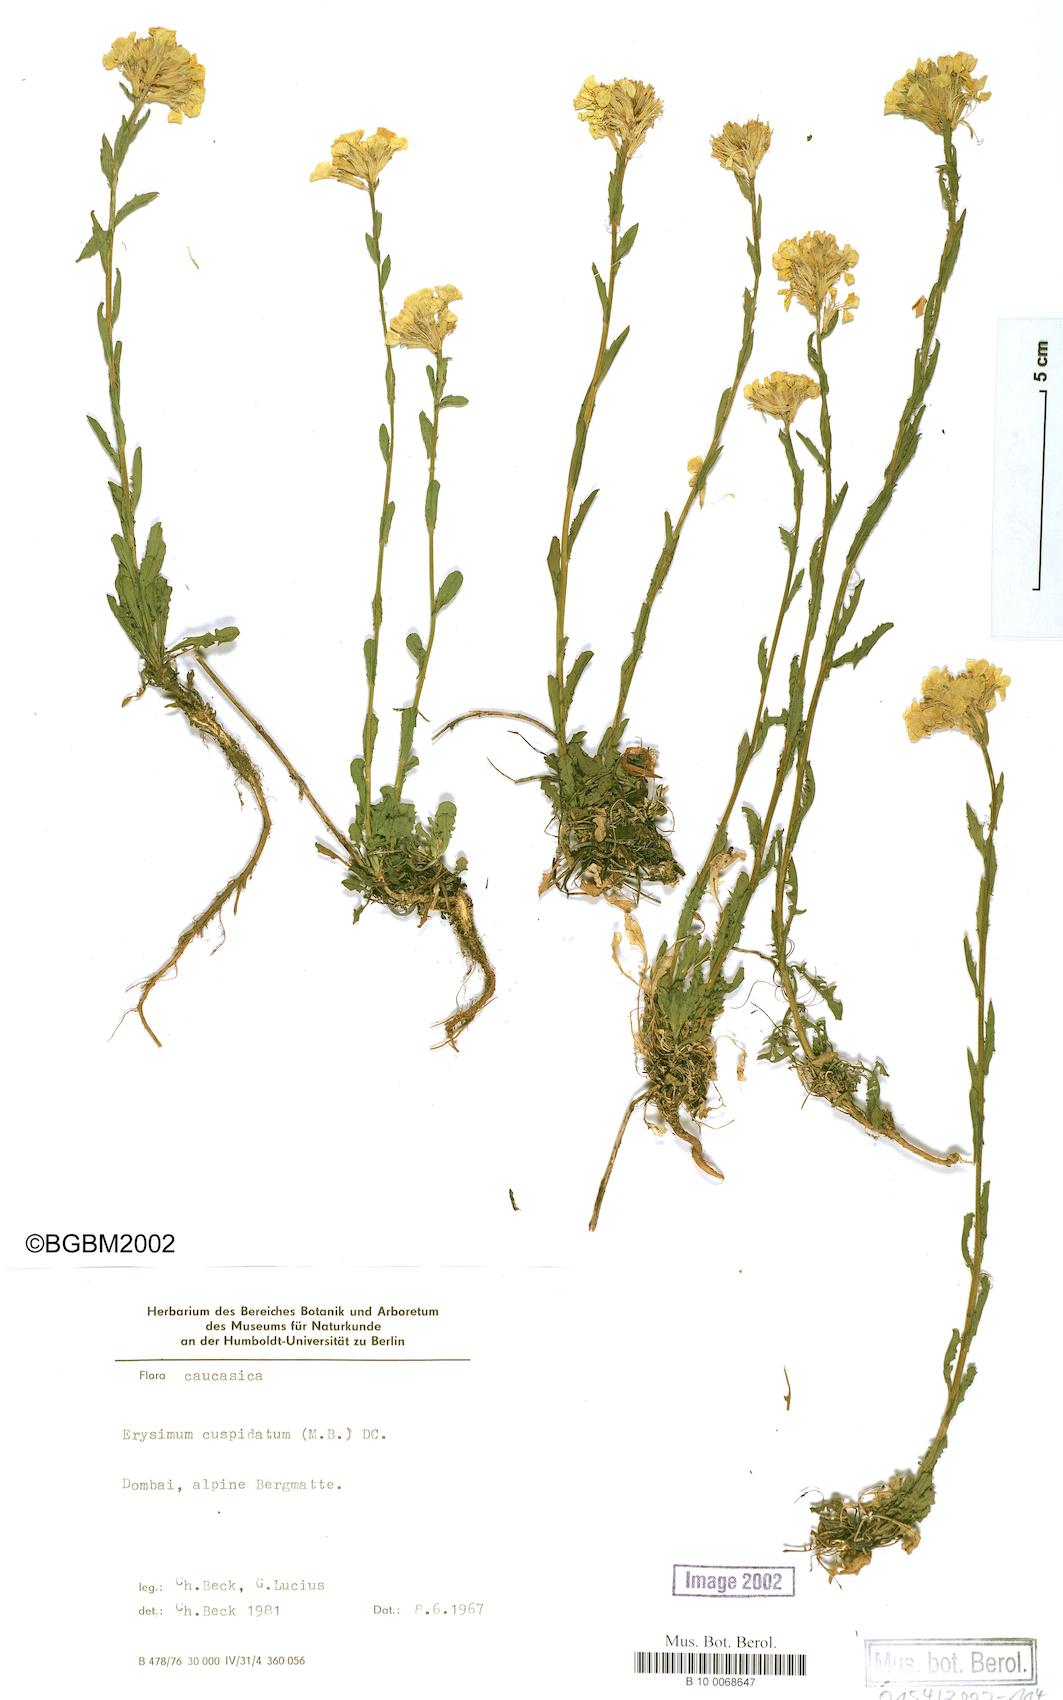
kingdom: Plantae
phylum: Tracheophyta
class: Magnoliopsida
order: Brassicales
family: Brassicaceae
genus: Erysimum
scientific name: Erysimum froehneri
